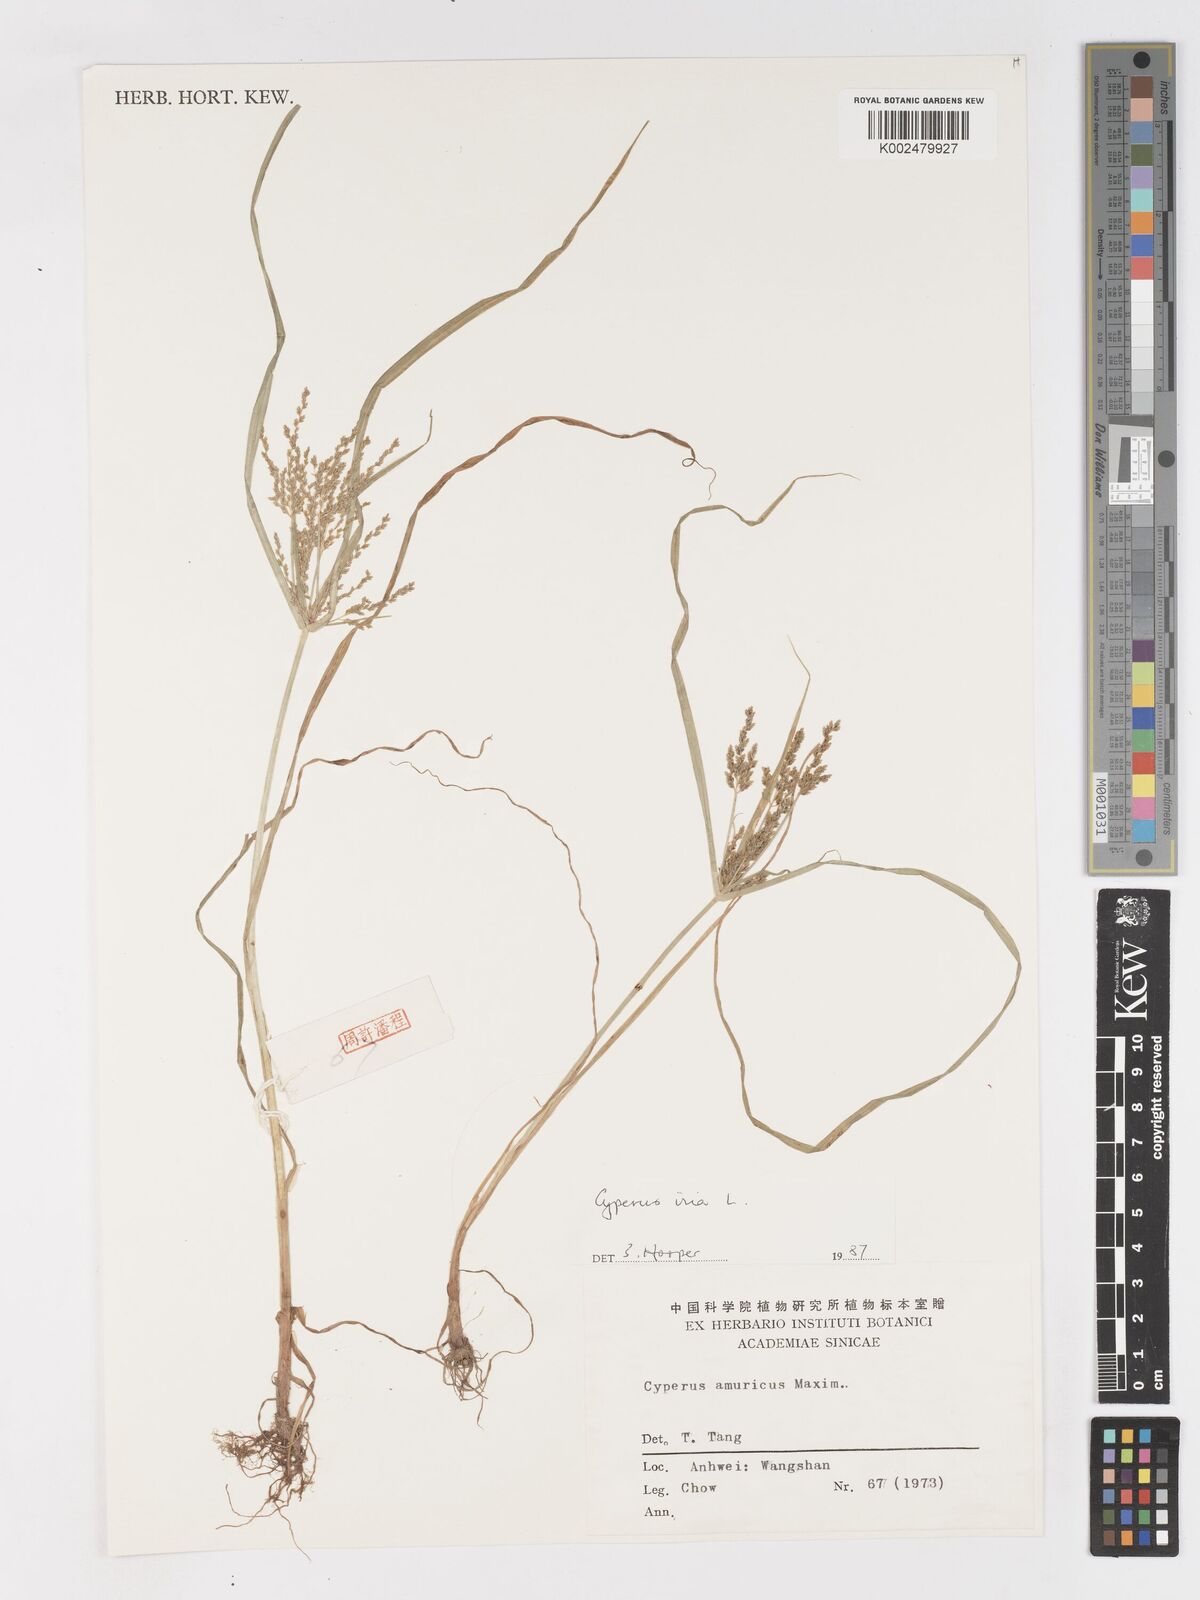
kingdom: Plantae
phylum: Tracheophyta
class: Liliopsida
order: Poales
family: Cyperaceae
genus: Cyperus
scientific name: Cyperus iria
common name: Ricefield flatsedge
